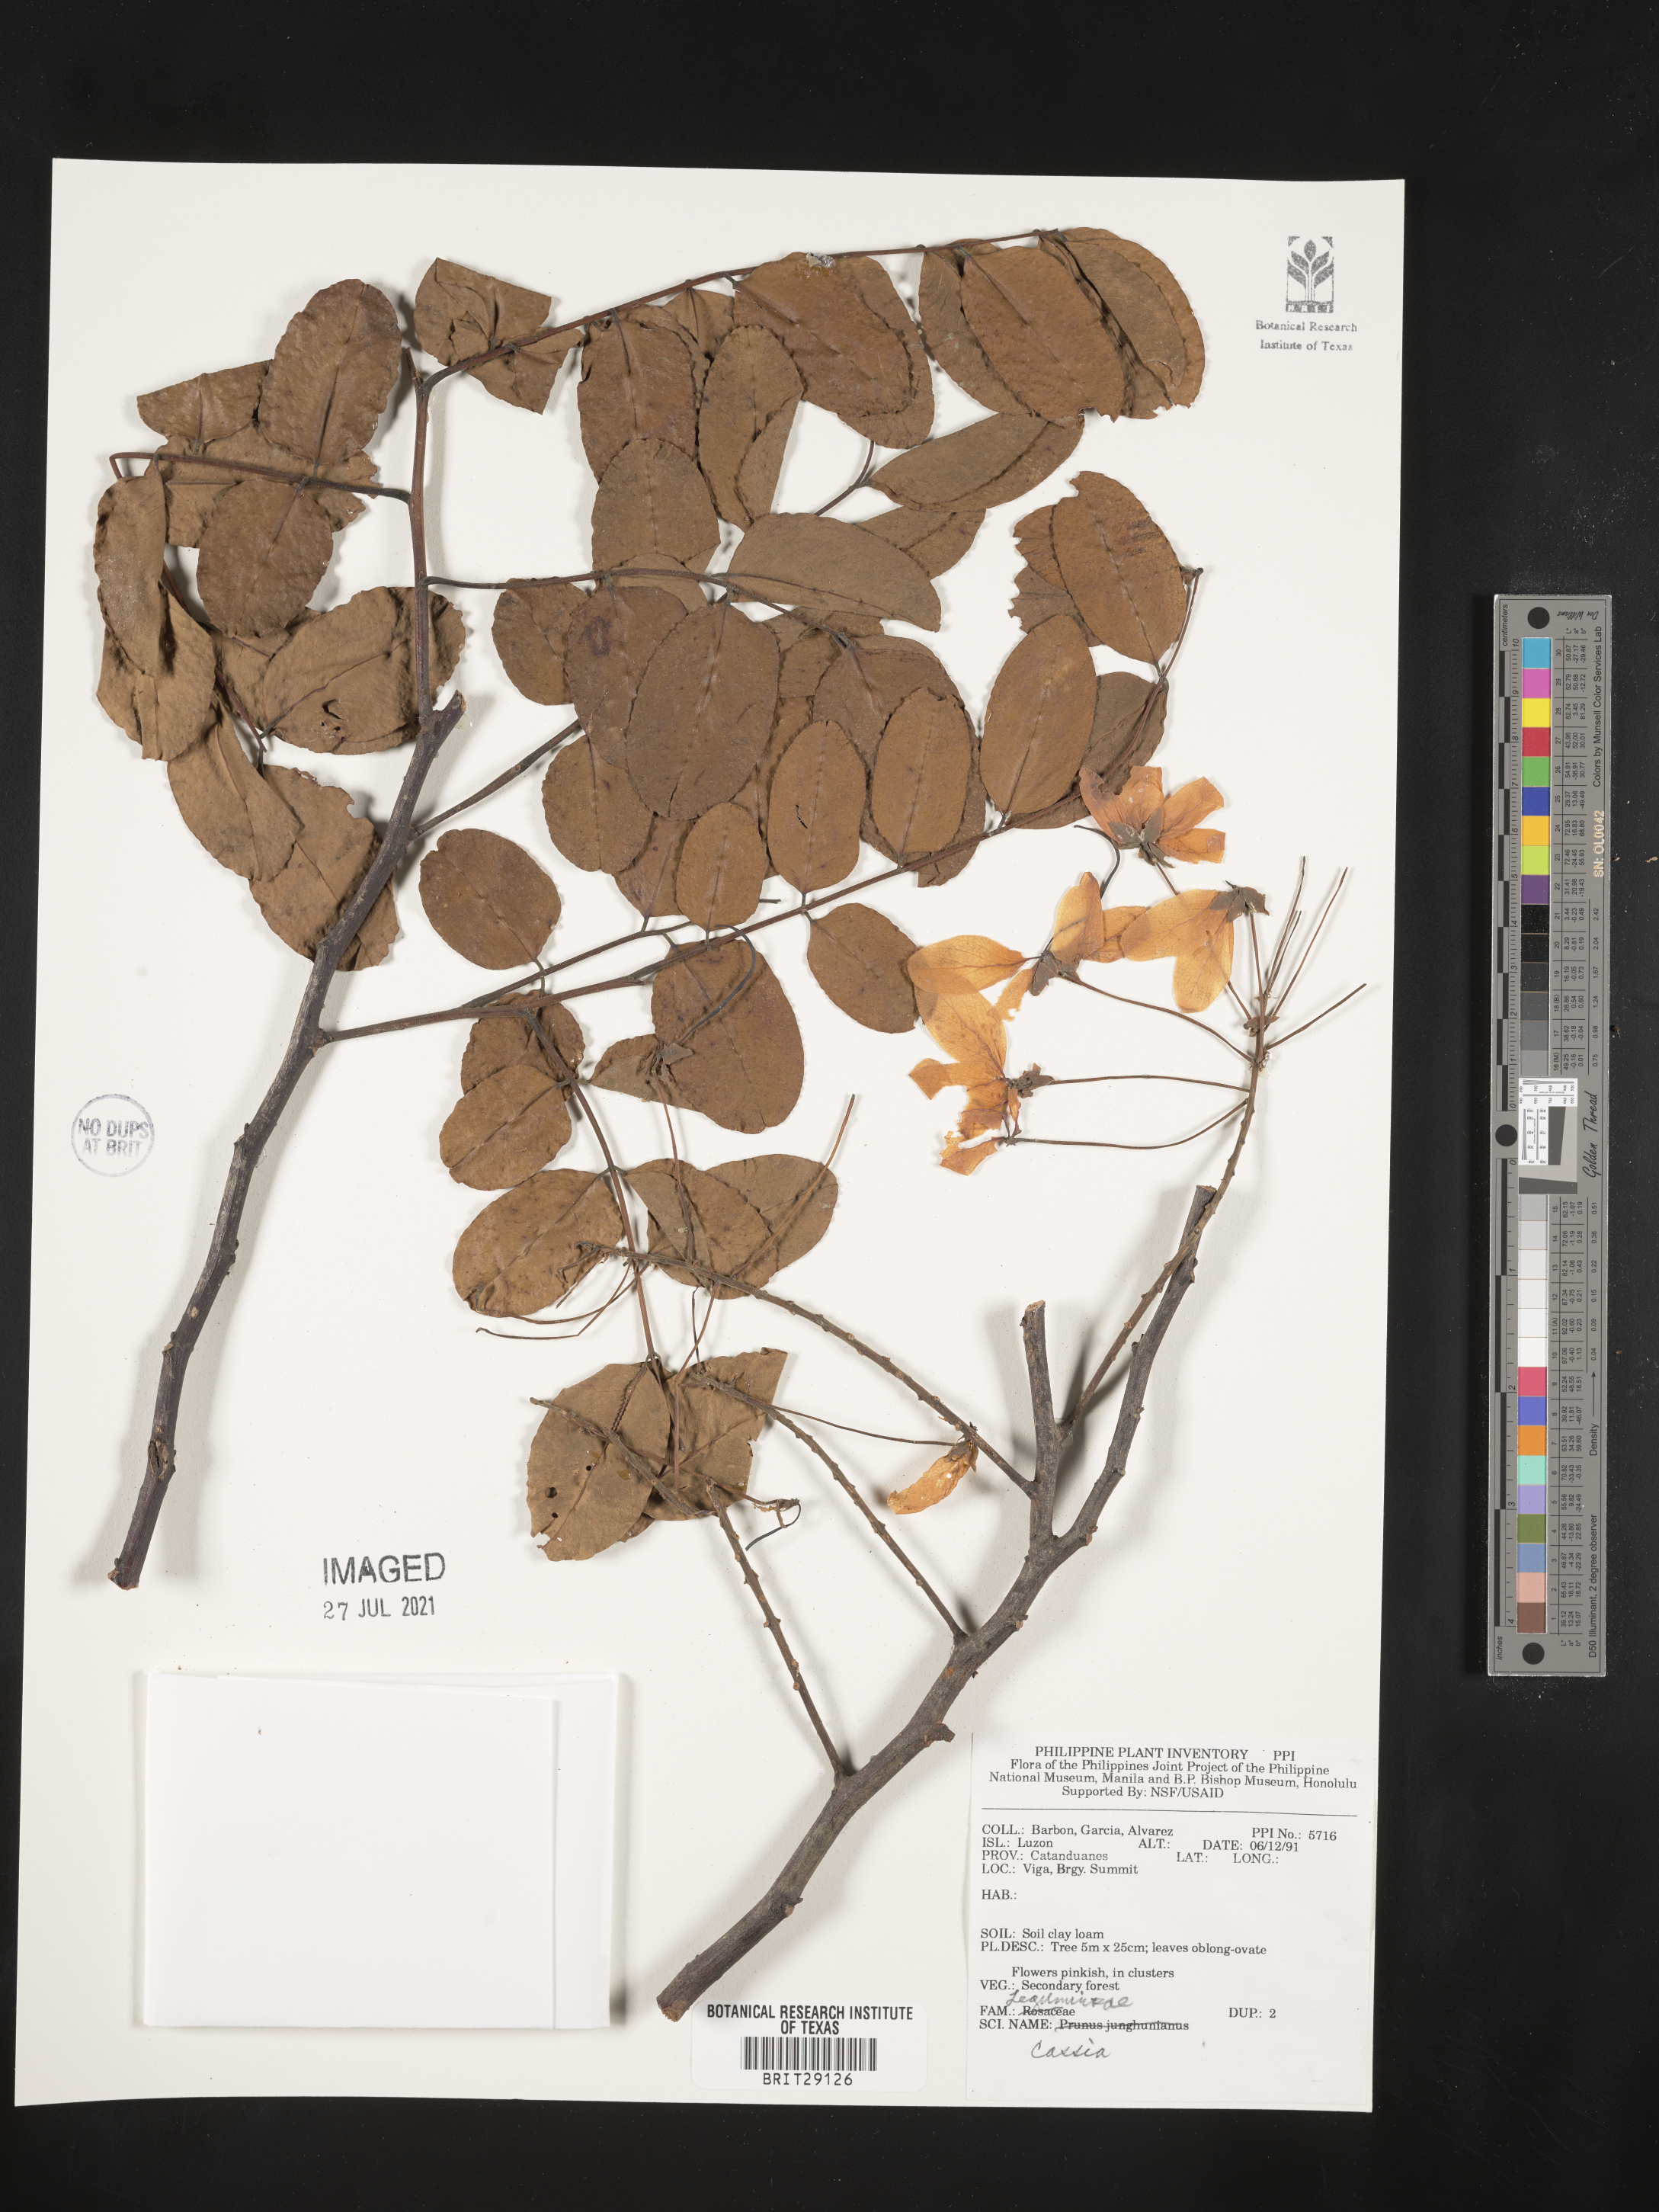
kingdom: Plantae
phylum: Tracheophyta
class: Magnoliopsida
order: Fabales
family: Fabaceae
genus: Cassia
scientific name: Cassia
